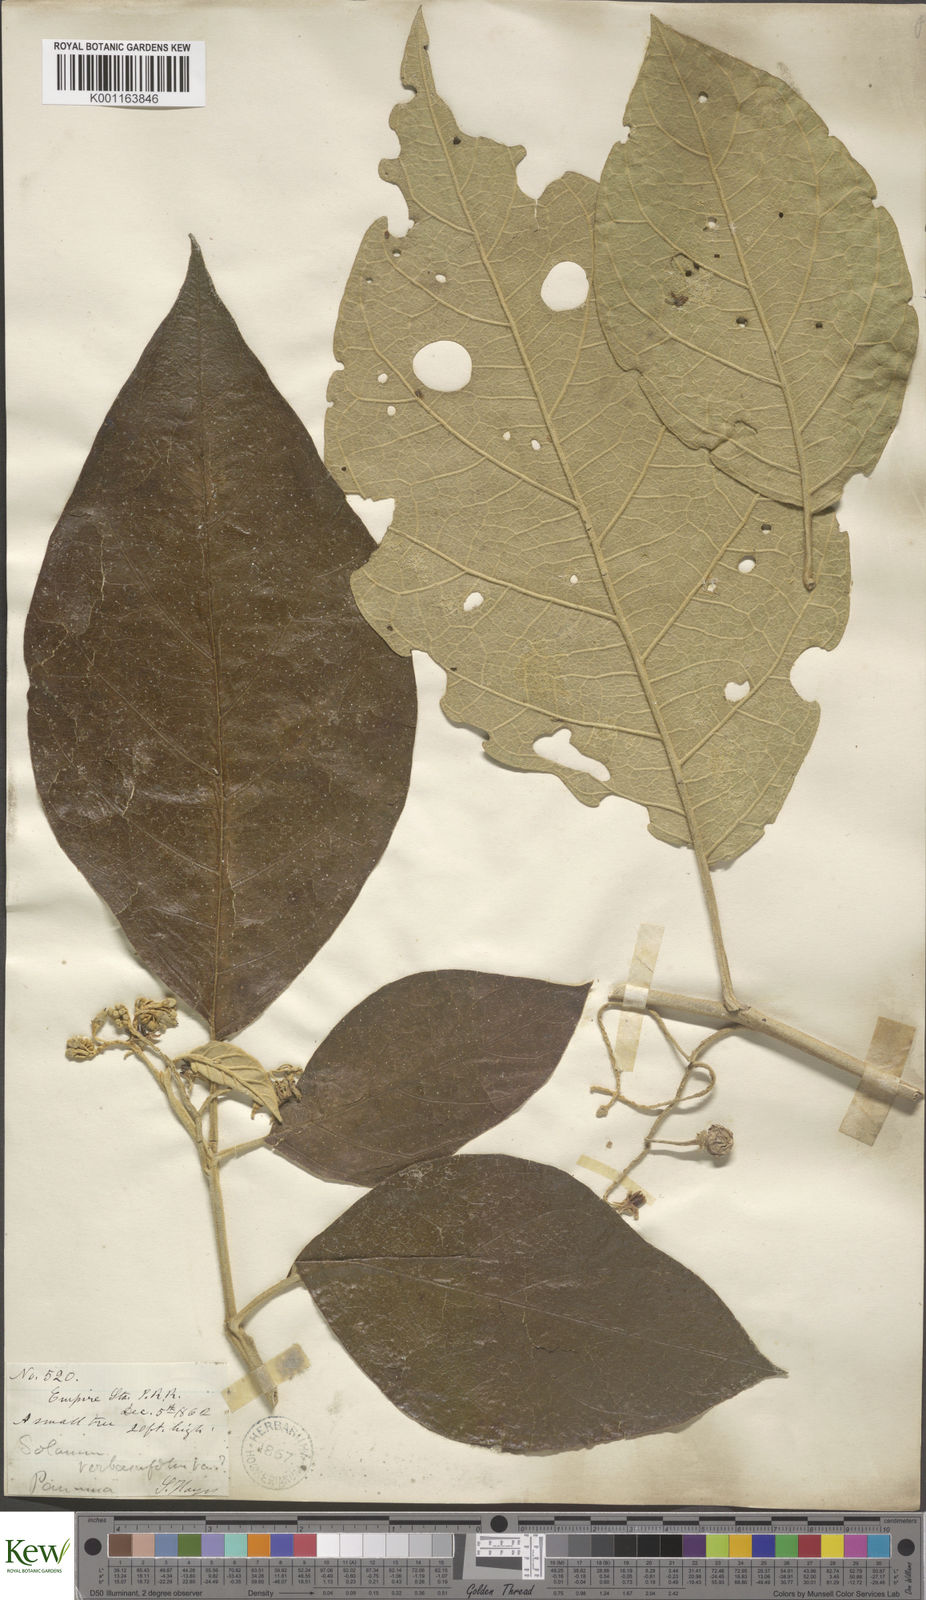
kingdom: Plantae
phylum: Tracheophyta
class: Magnoliopsida
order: Solanales
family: Solanaceae
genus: Solanum
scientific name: Solanum erianthum
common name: Tobacco-tree
